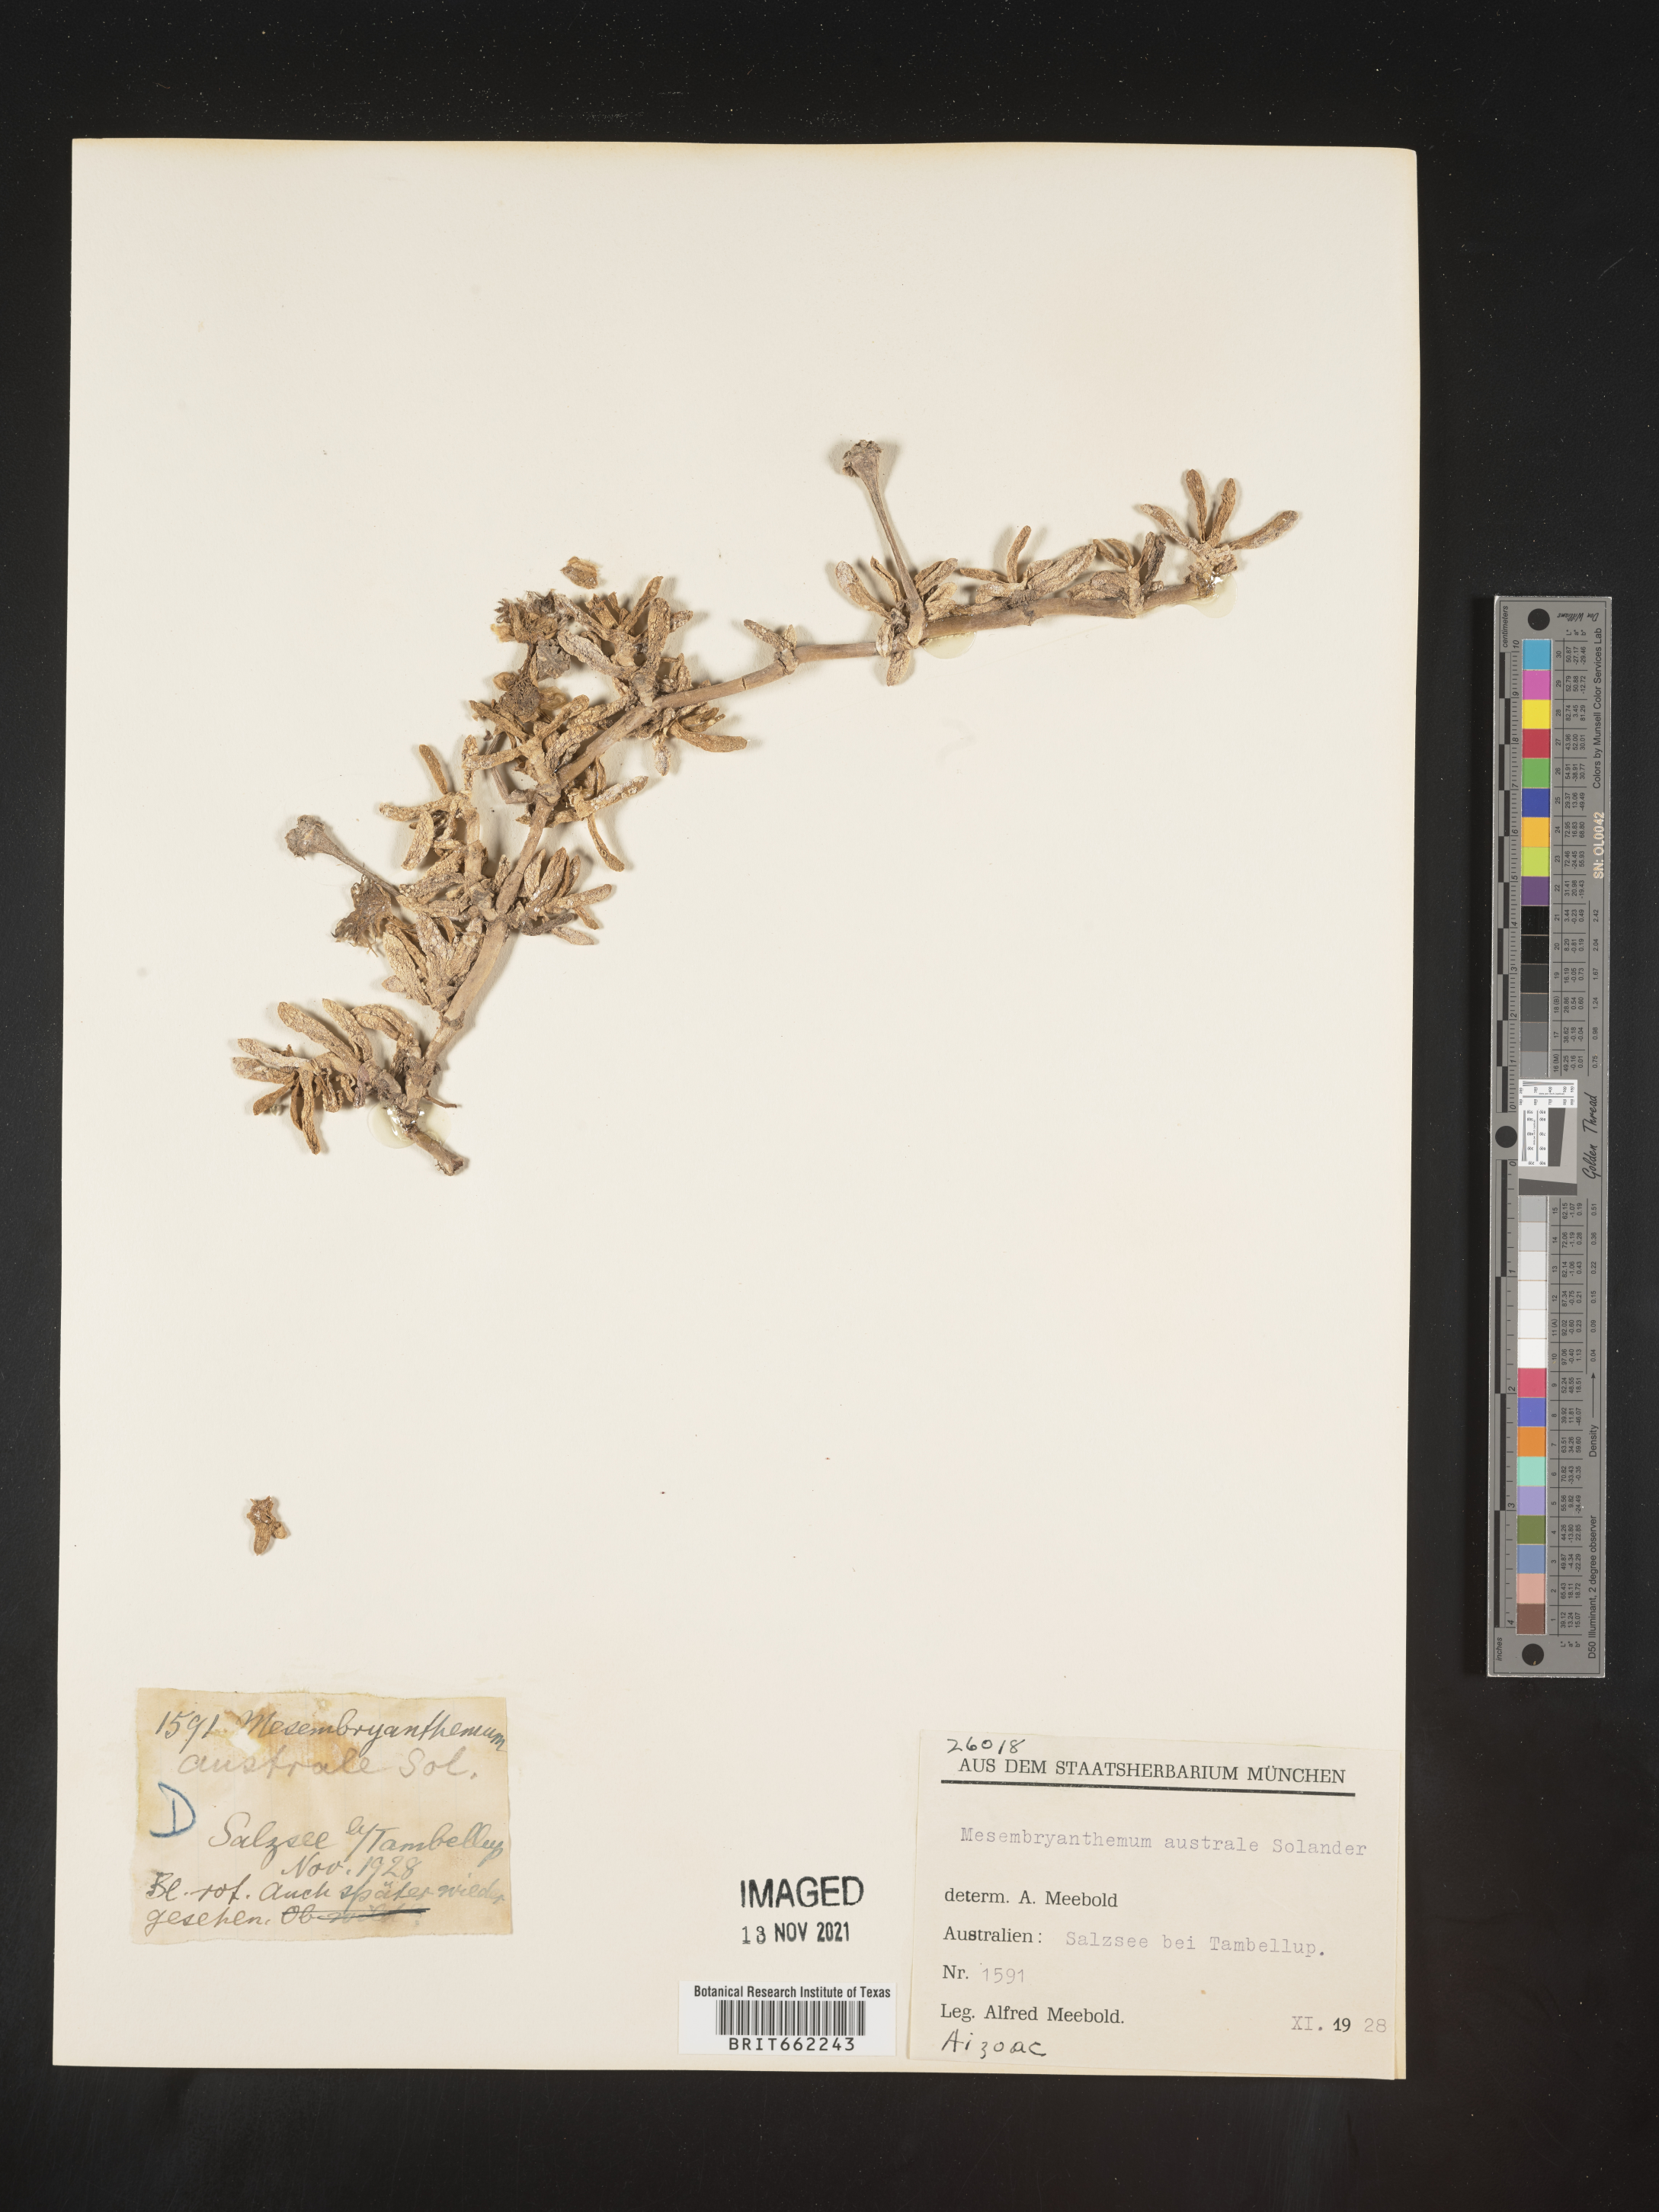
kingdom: Plantae
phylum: Tracheophyta
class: Magnoliopsida
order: Caryophyllales
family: Aizoaceae
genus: Mesembryanthemum
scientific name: Mesembryanthemum
